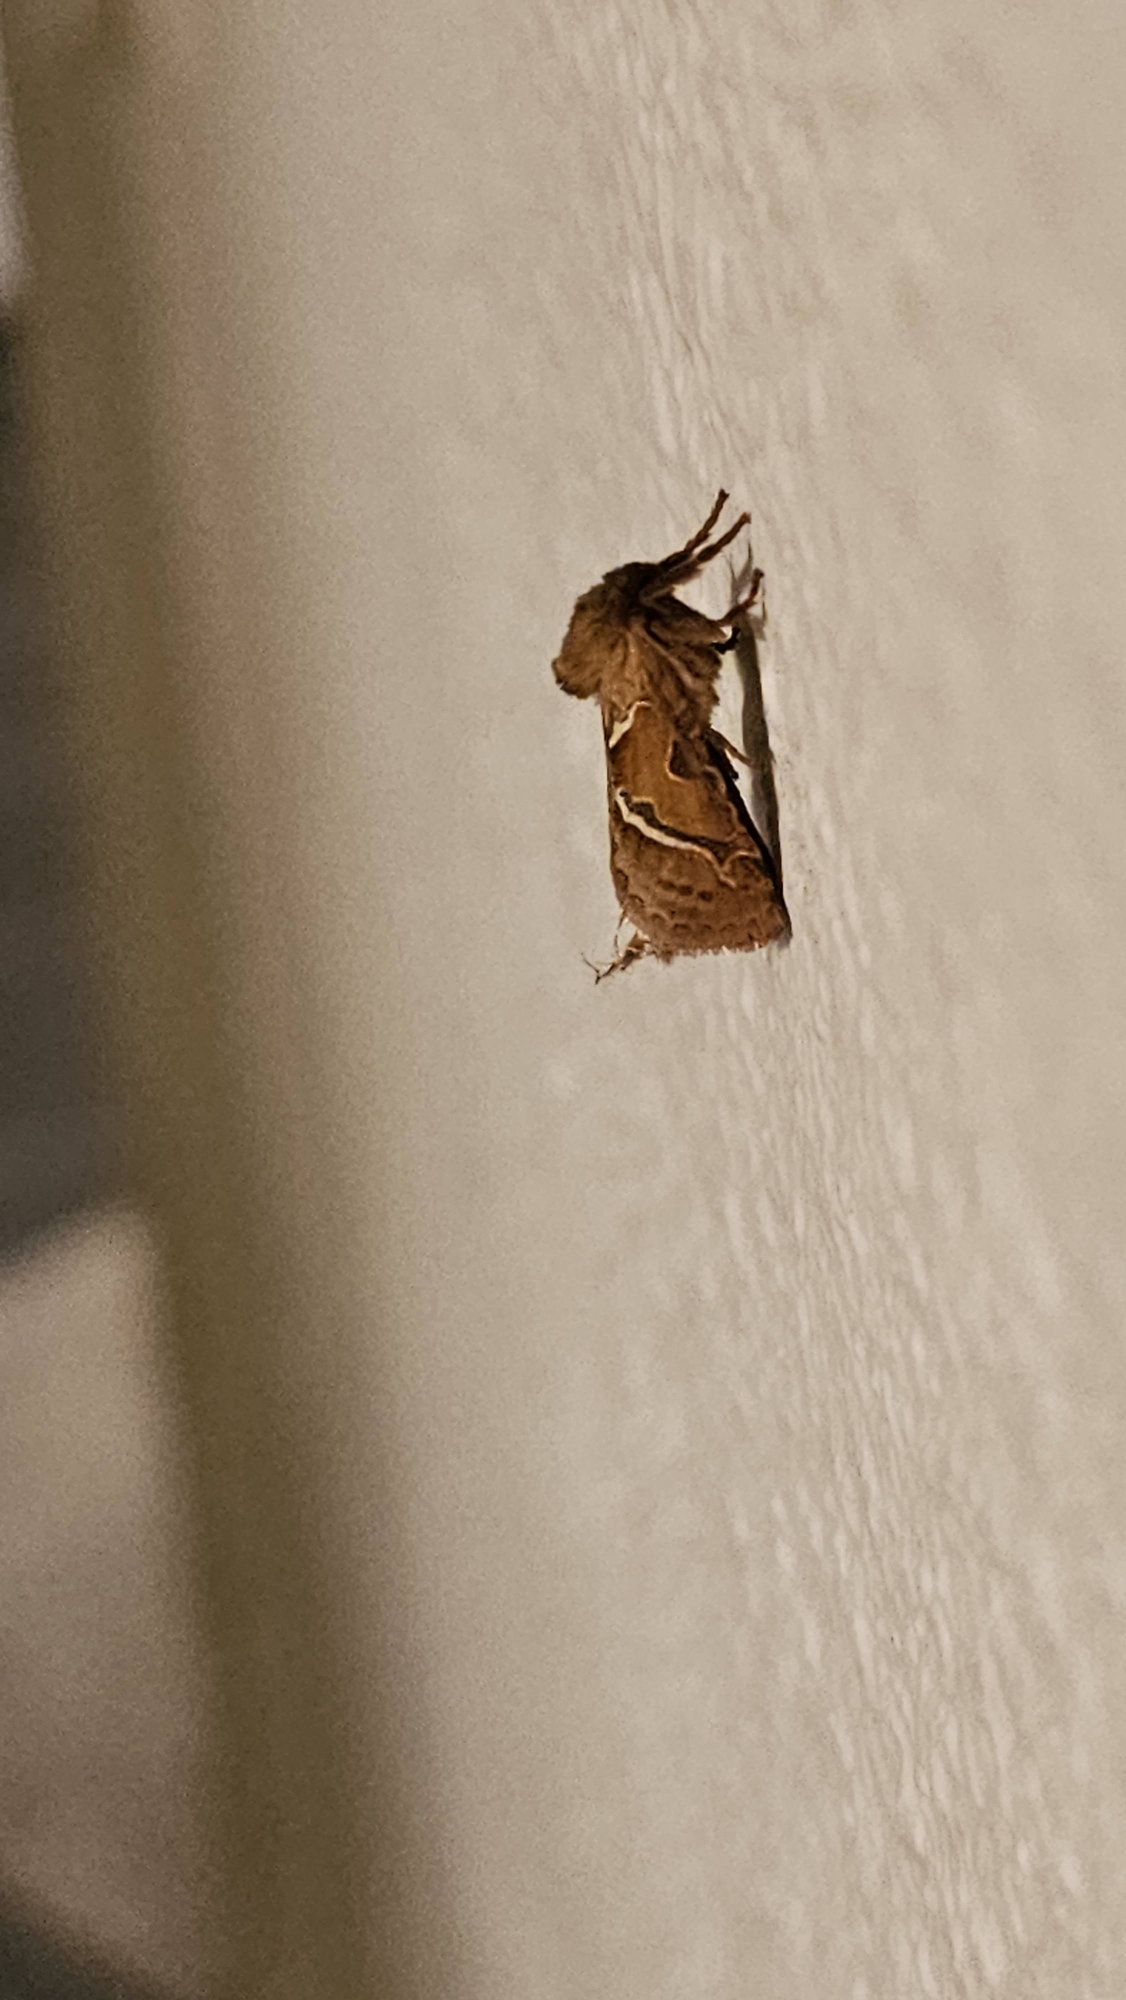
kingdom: Animalia
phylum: Arthropoda
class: Insecta
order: Lepidoptera
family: Hepialidae
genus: Triodia
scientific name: Triodia sylvina
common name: Skræpperodæder
